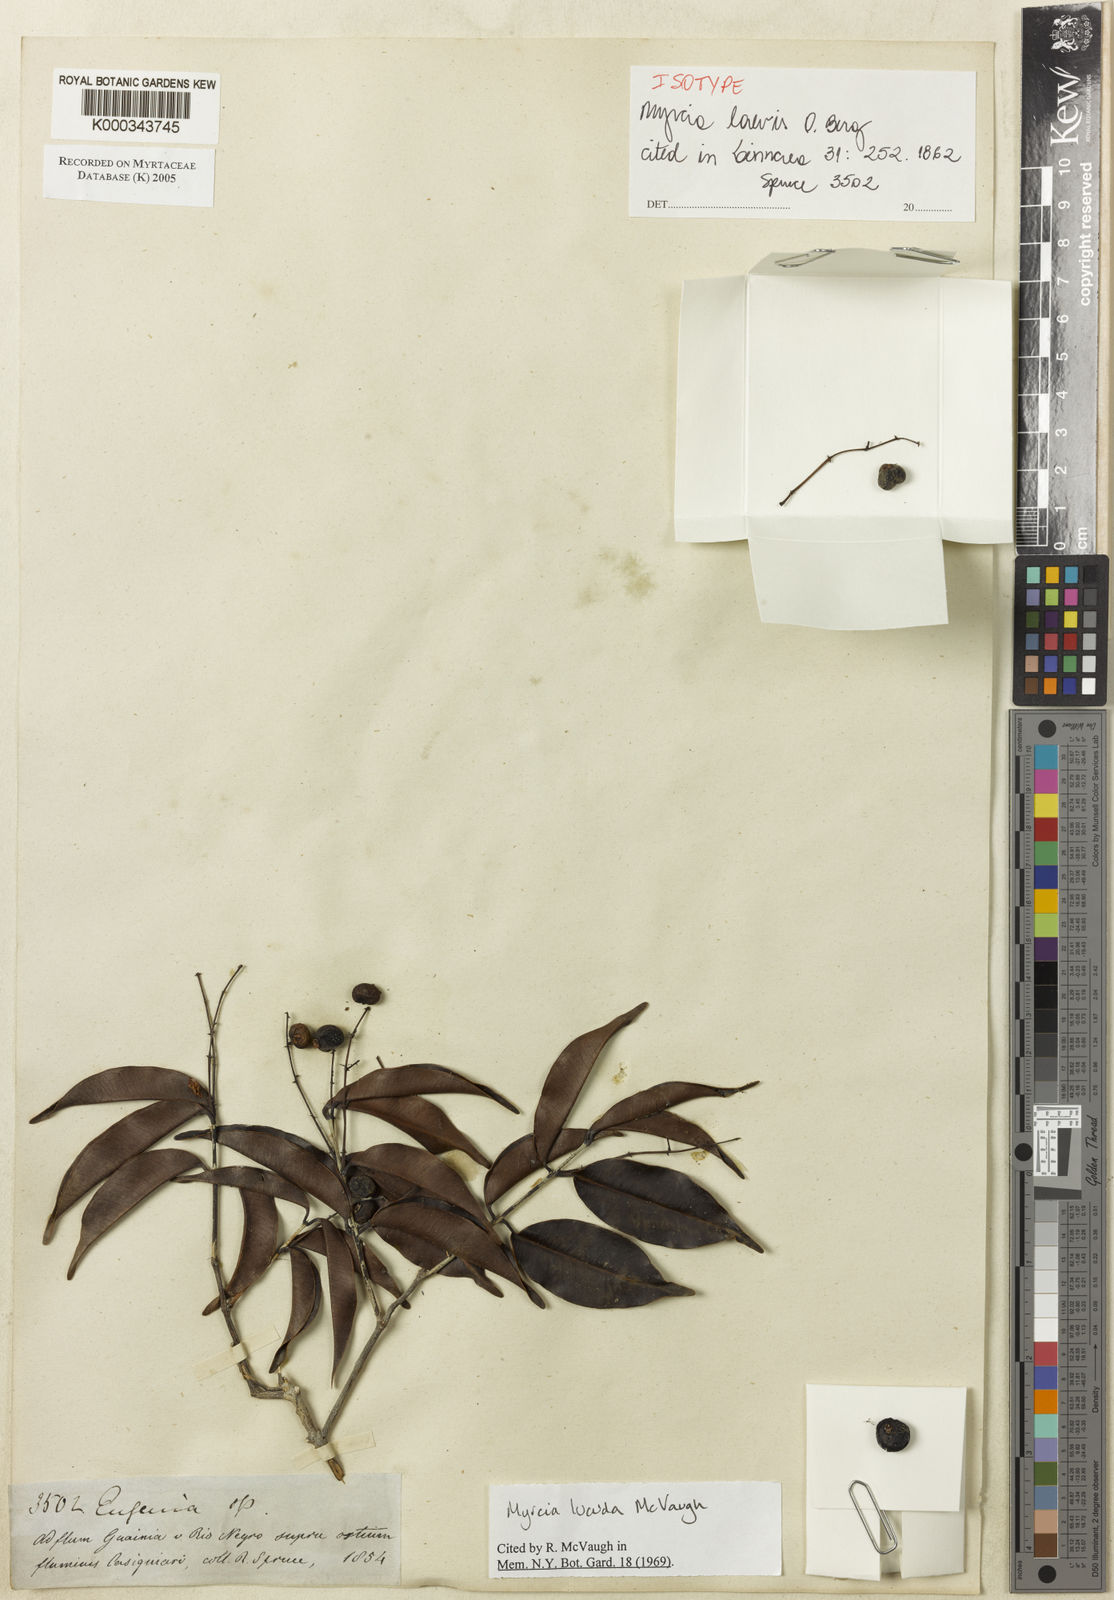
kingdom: Plantae
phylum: Tracheophyta
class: Magnoliopsida
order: Myrtales
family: Myrtaceae
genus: Myrcia
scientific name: Myrcia inaequiloba
